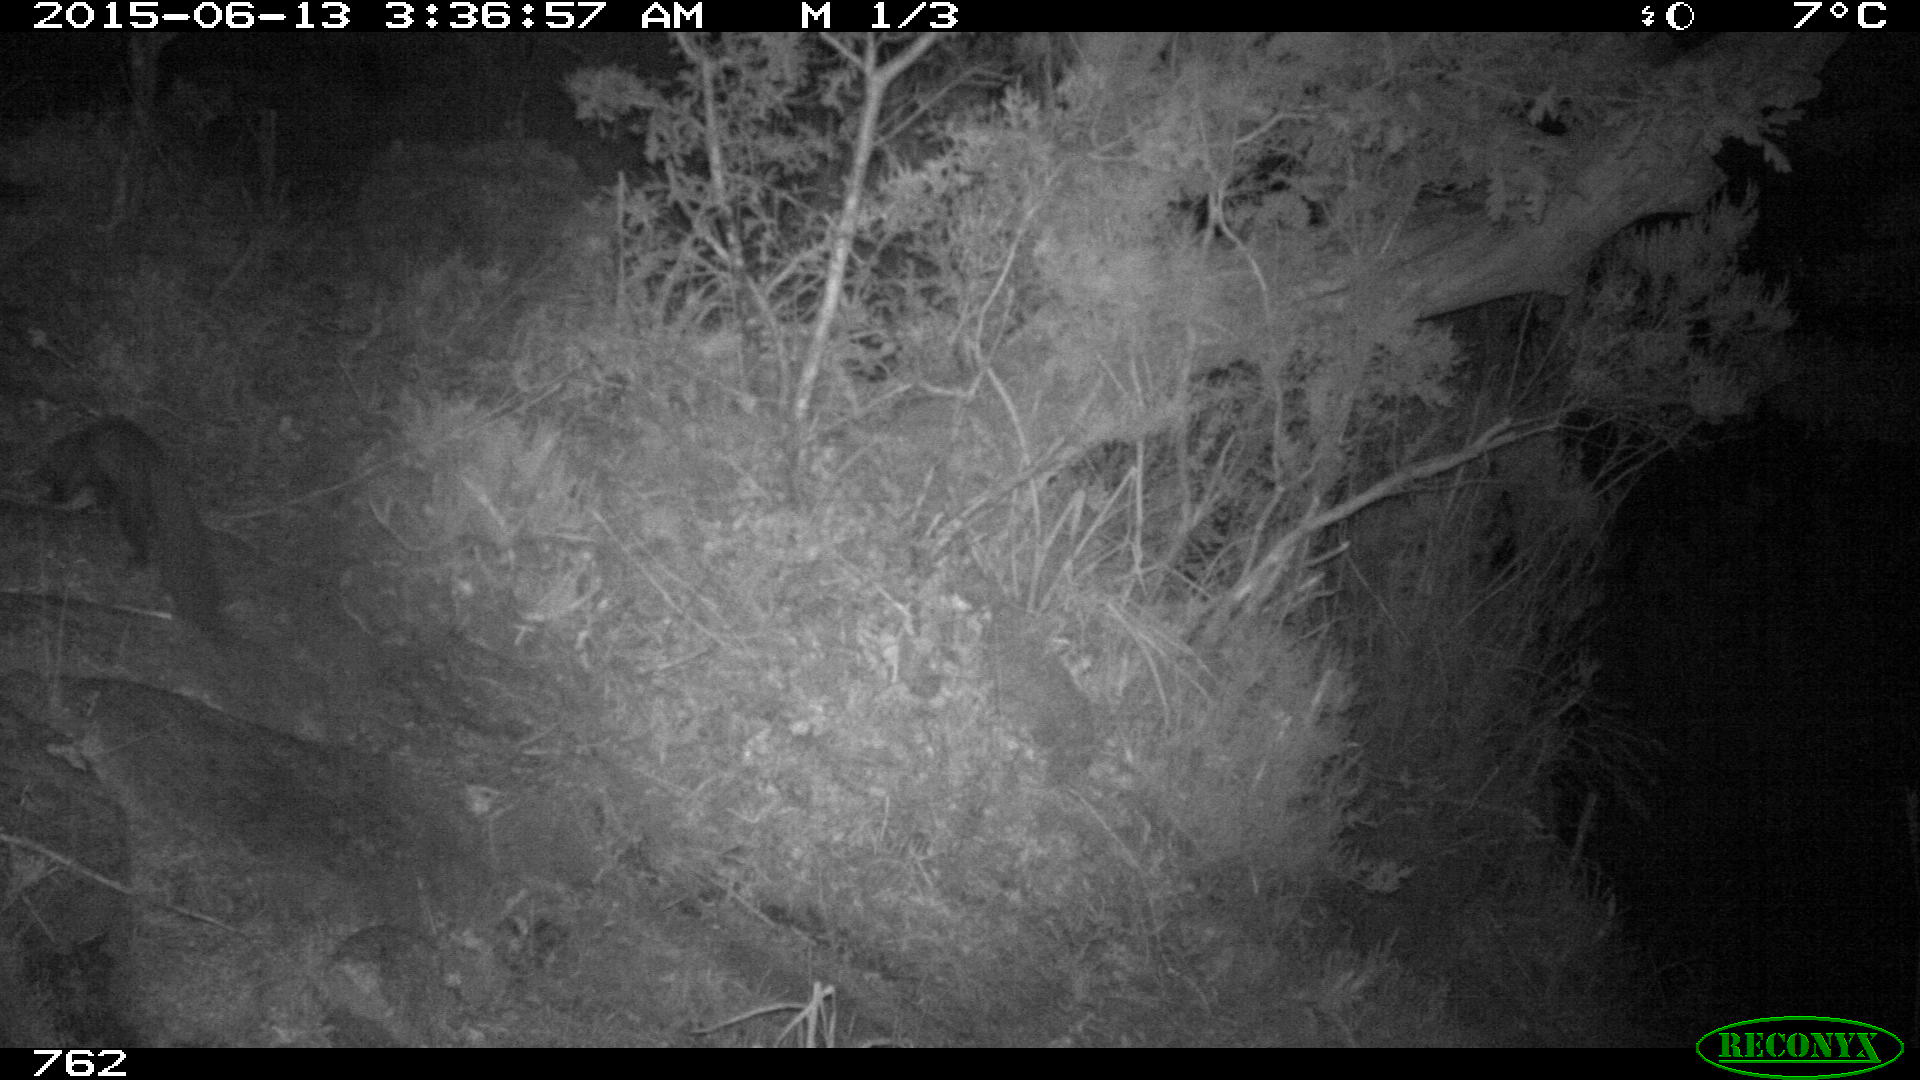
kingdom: Animalia
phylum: Chordata
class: Mammalia
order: Carnivora
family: Mustelidae
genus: Martes
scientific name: Martes foina
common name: Beech marten
